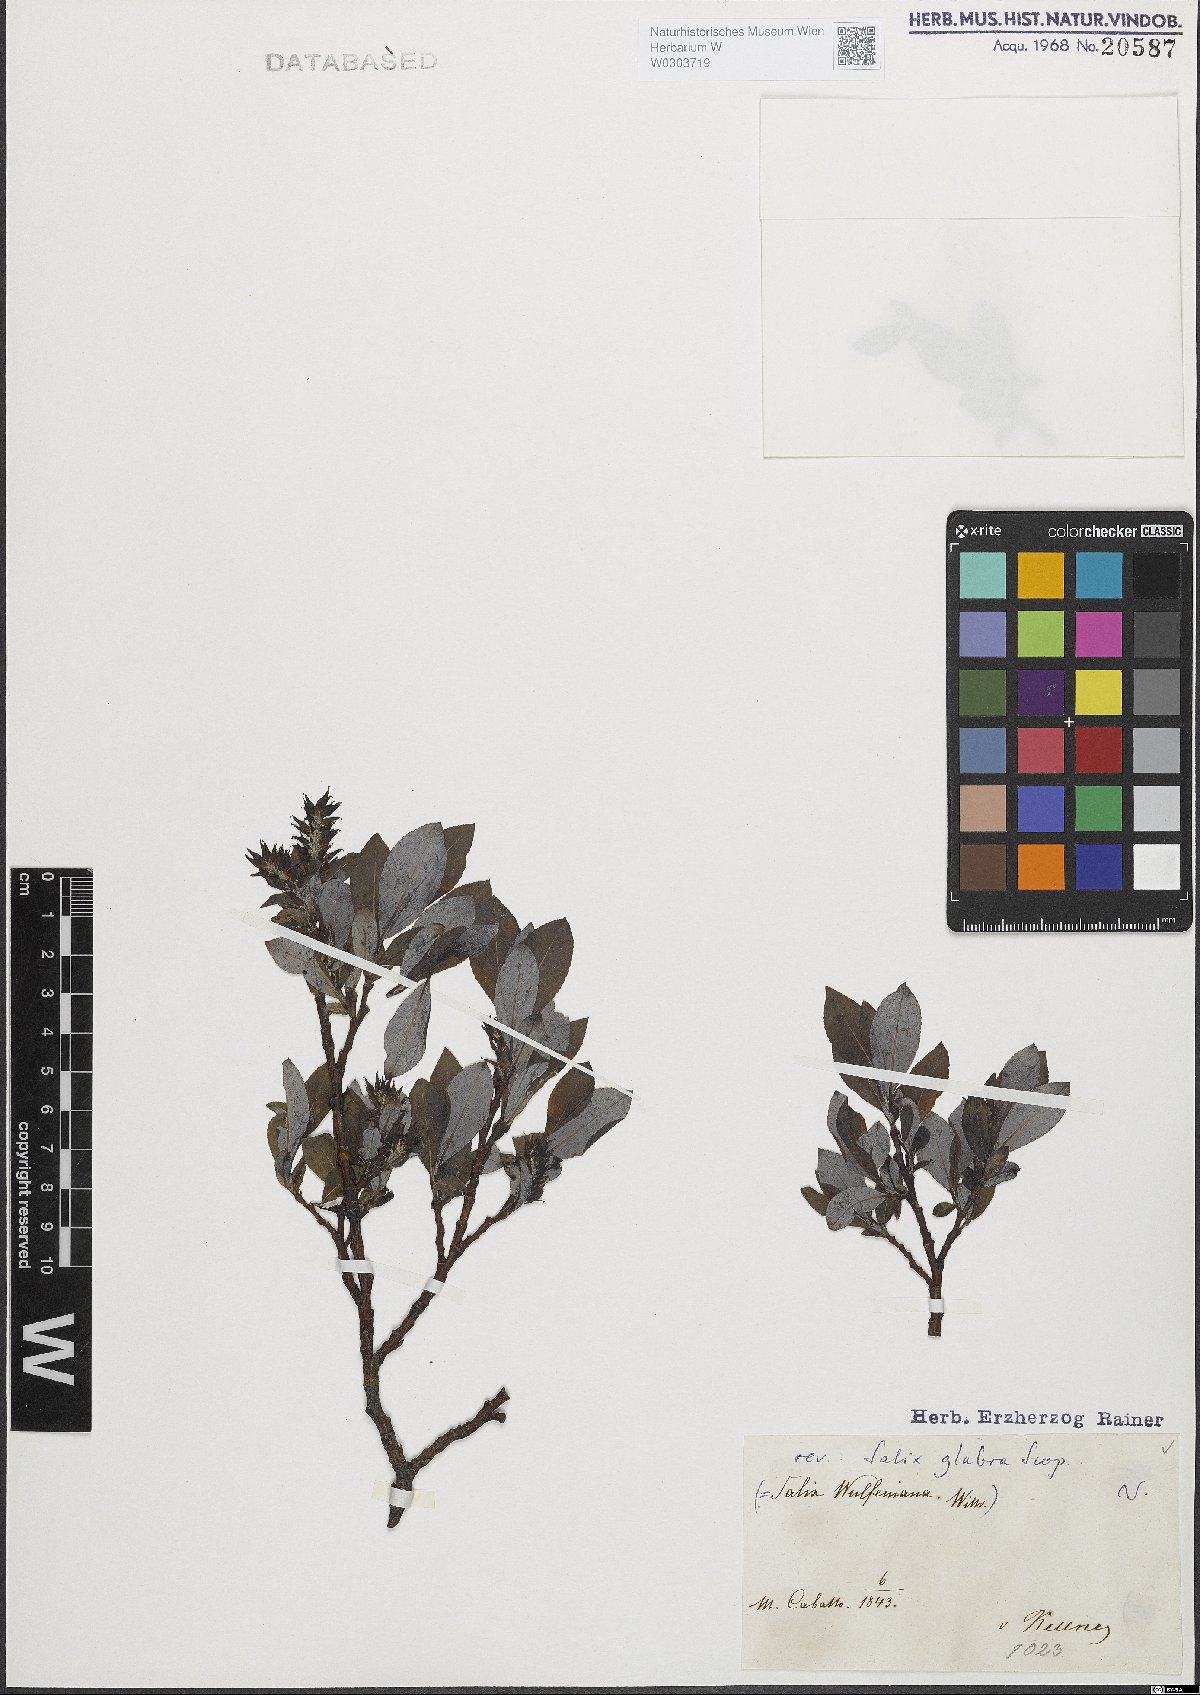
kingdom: Plantae
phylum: Tracheophyta
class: Magnoliopsida
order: Malpighiales
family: Salicaceae
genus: Salix
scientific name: Salix glabra
